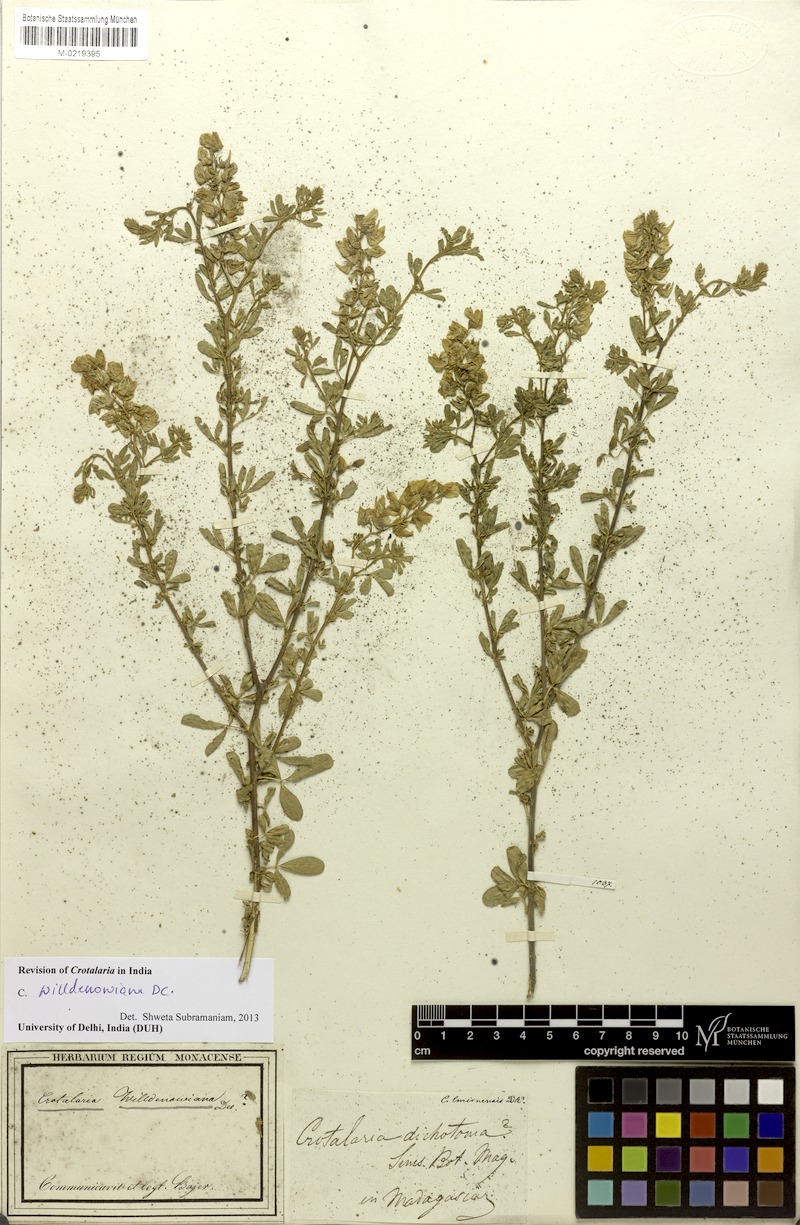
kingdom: Plantae
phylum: Tracheophyta
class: Magnoliopsida
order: Fabales
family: Fabaceae
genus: Crotalaria
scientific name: Crotalaria willdenowiana
